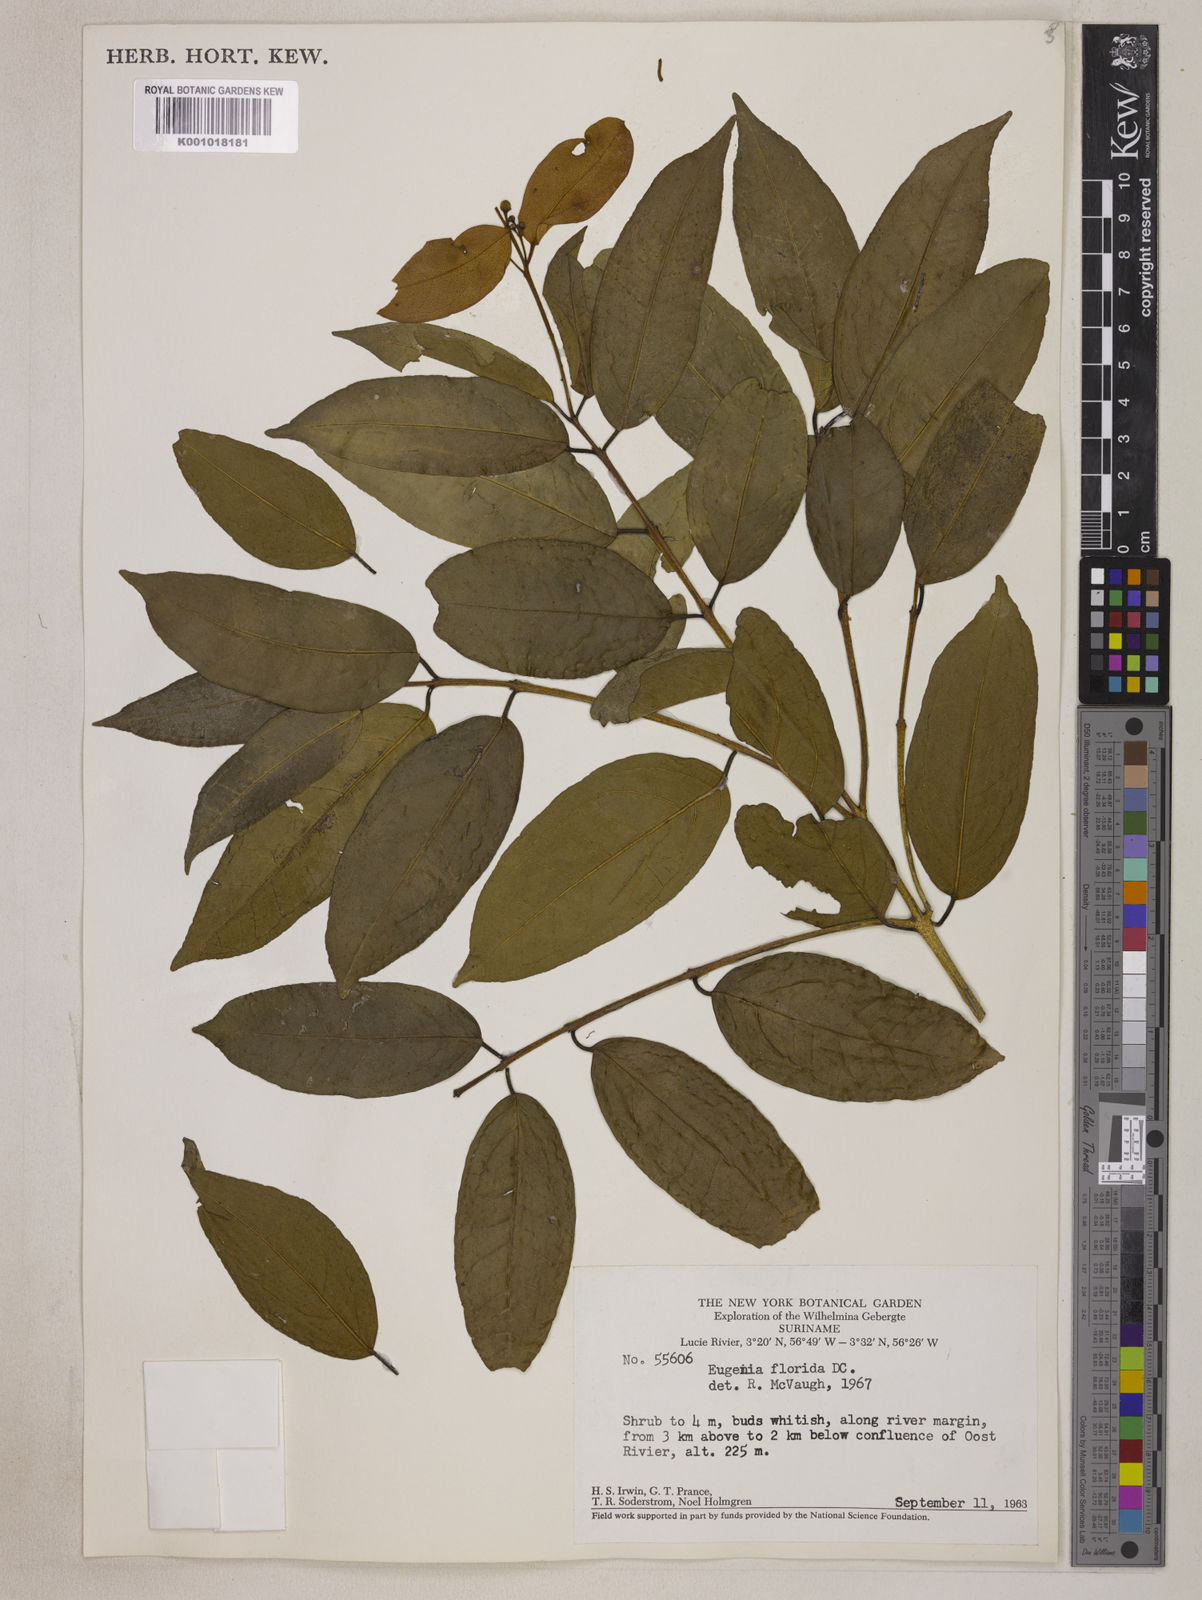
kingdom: Plantae
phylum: Tracheophyta
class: Magnoliopsida
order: Myrtales
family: Myrtaceae
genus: Eugenia
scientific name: Eugenia florida
